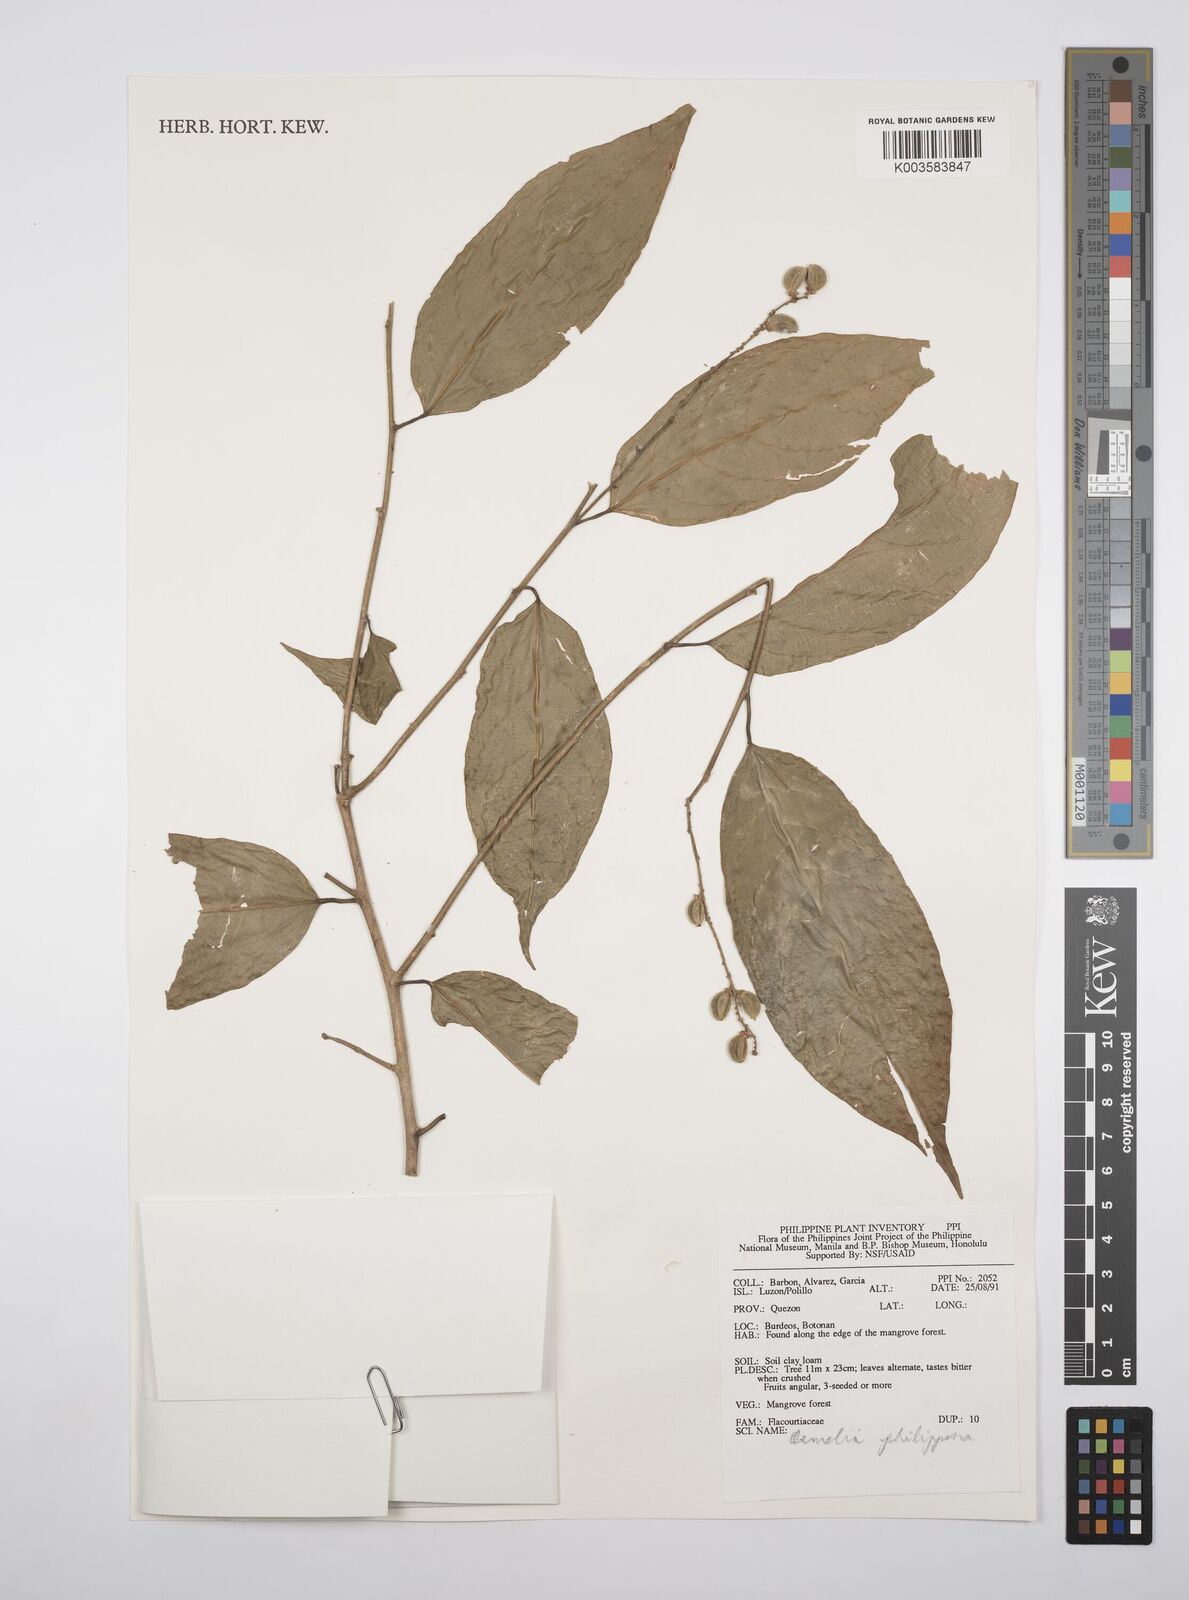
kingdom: Plantae
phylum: Tracheophyta
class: Magnoliopsida
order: Malpighiales
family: Salicaceae
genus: Osmelia
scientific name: Osmelia philippina
